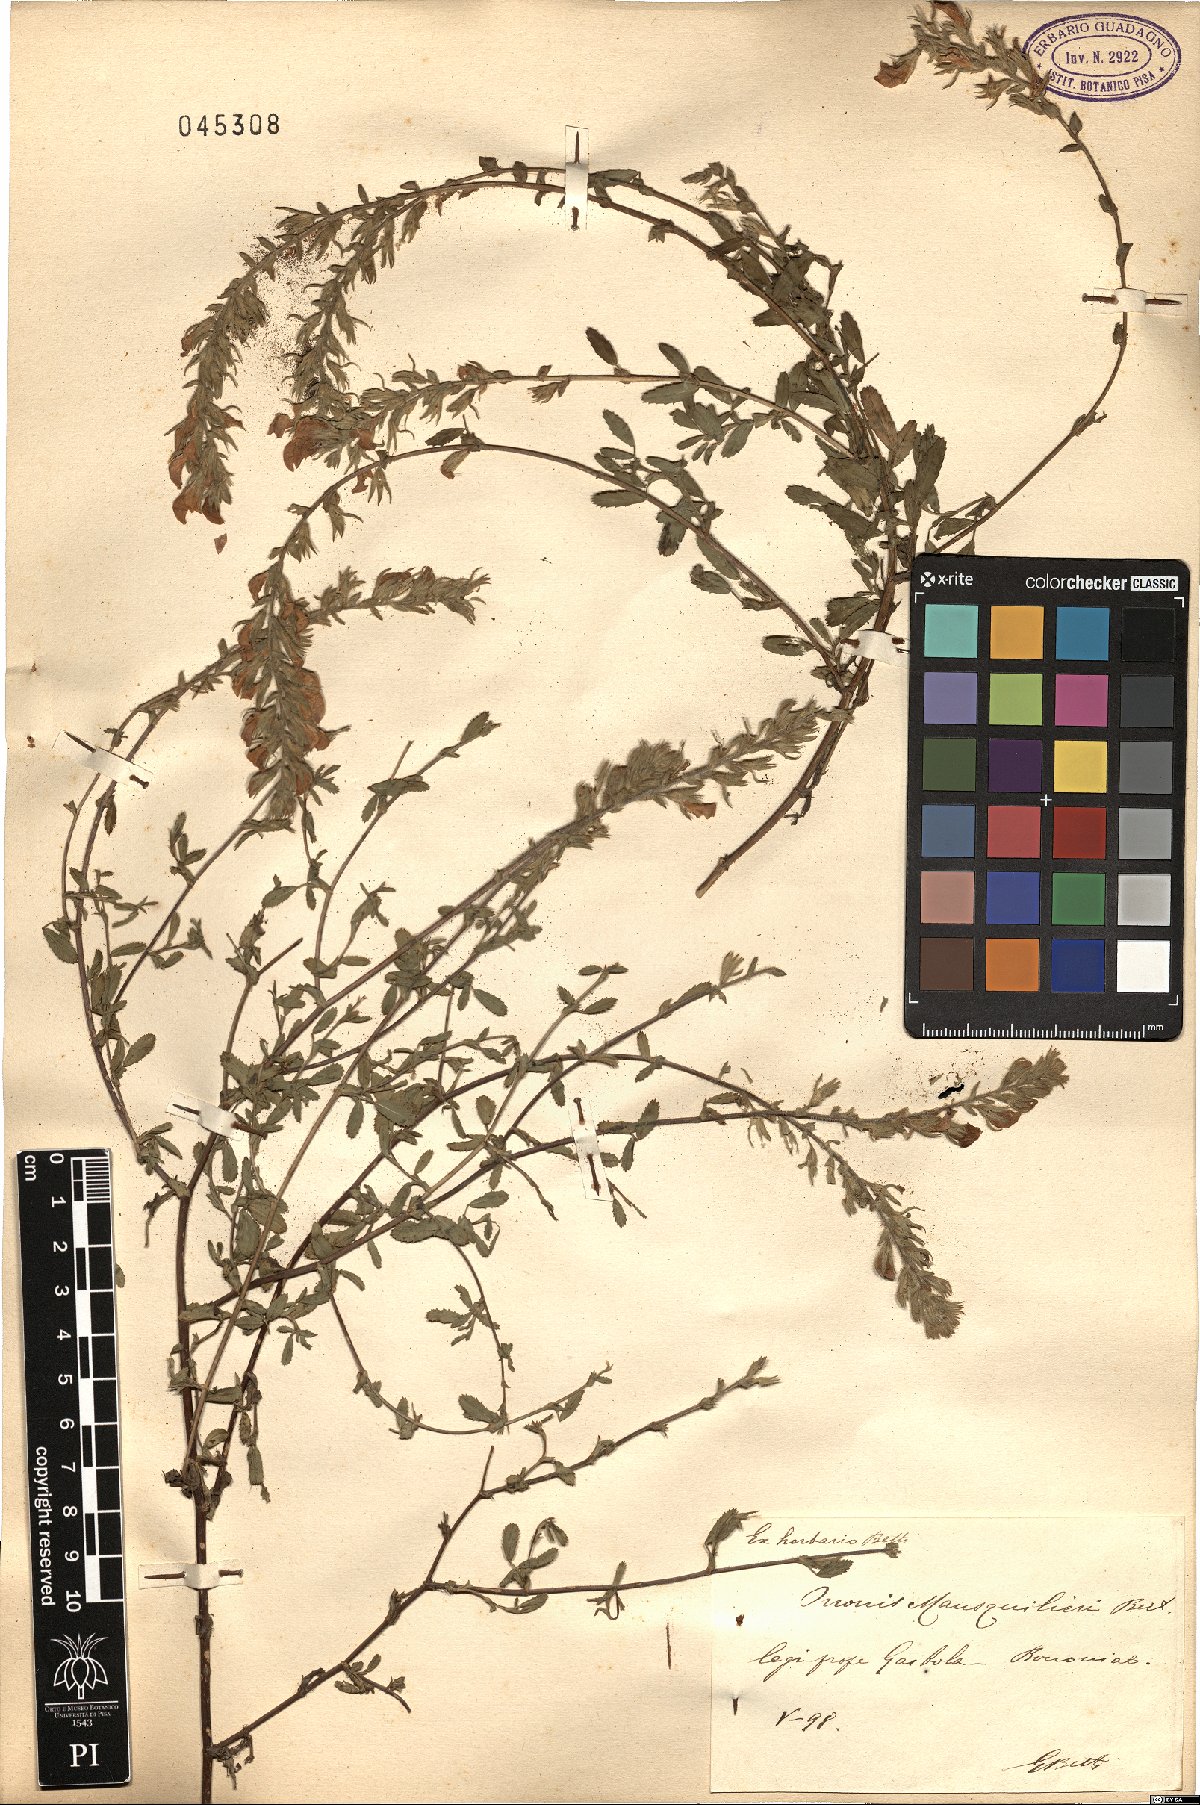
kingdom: Plantae
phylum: Tracheophyta
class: Magnoliopsida
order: Fabales
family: Fabaceae
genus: Ononis
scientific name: Ononis spinosa
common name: Spiny restharrow
